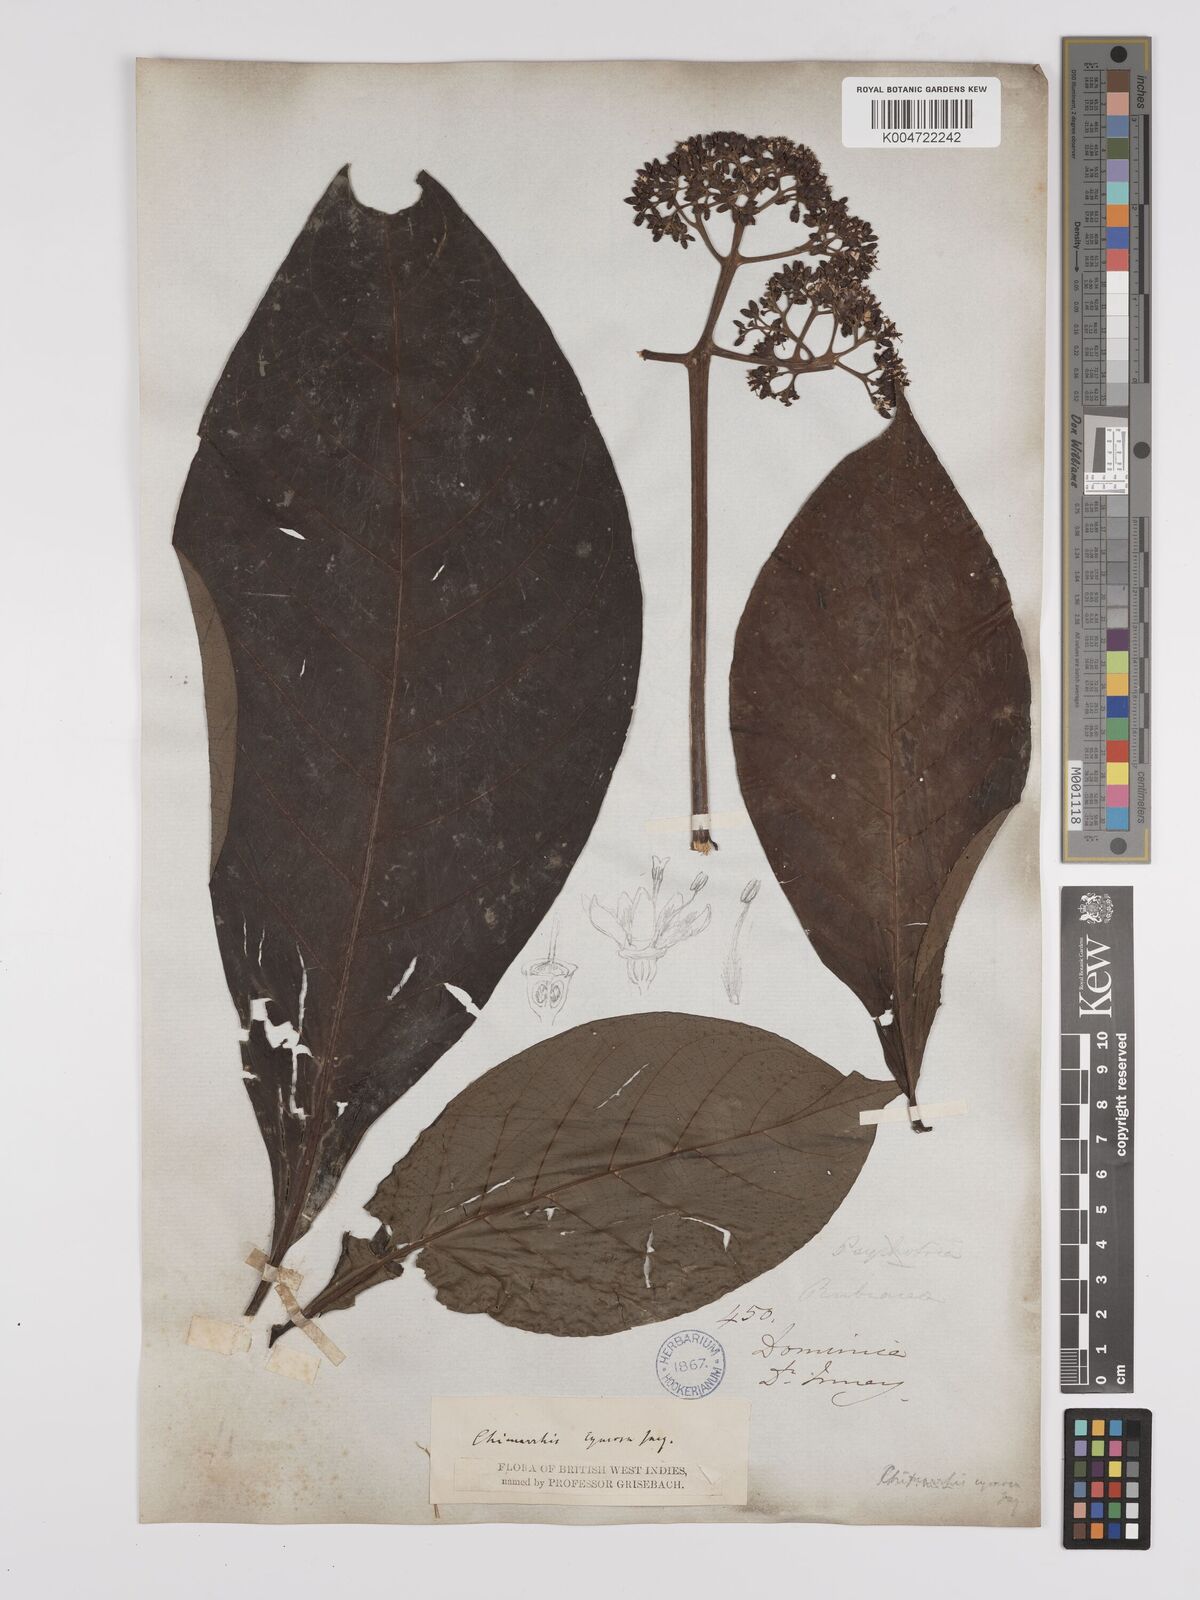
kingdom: Plantae
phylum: Tracheophyta
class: Magnoliopsida
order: Gentianales
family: Rubiaceae
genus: Chimarrhis
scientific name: Chimarrhis cymosa
